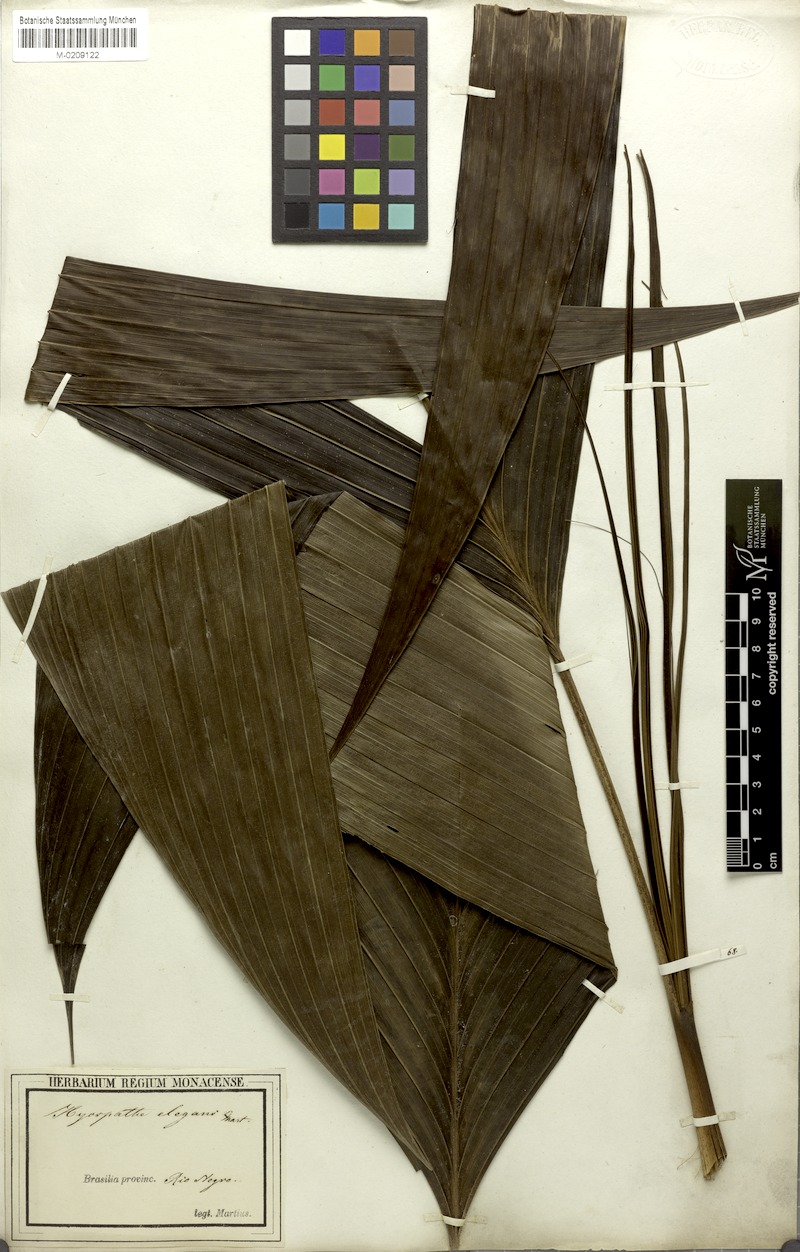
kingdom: Plantae
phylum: Tracheophyta
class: Liliopsida
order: Arecales
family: Arecaceae
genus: Hyospathe
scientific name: Hyospathe elegans
